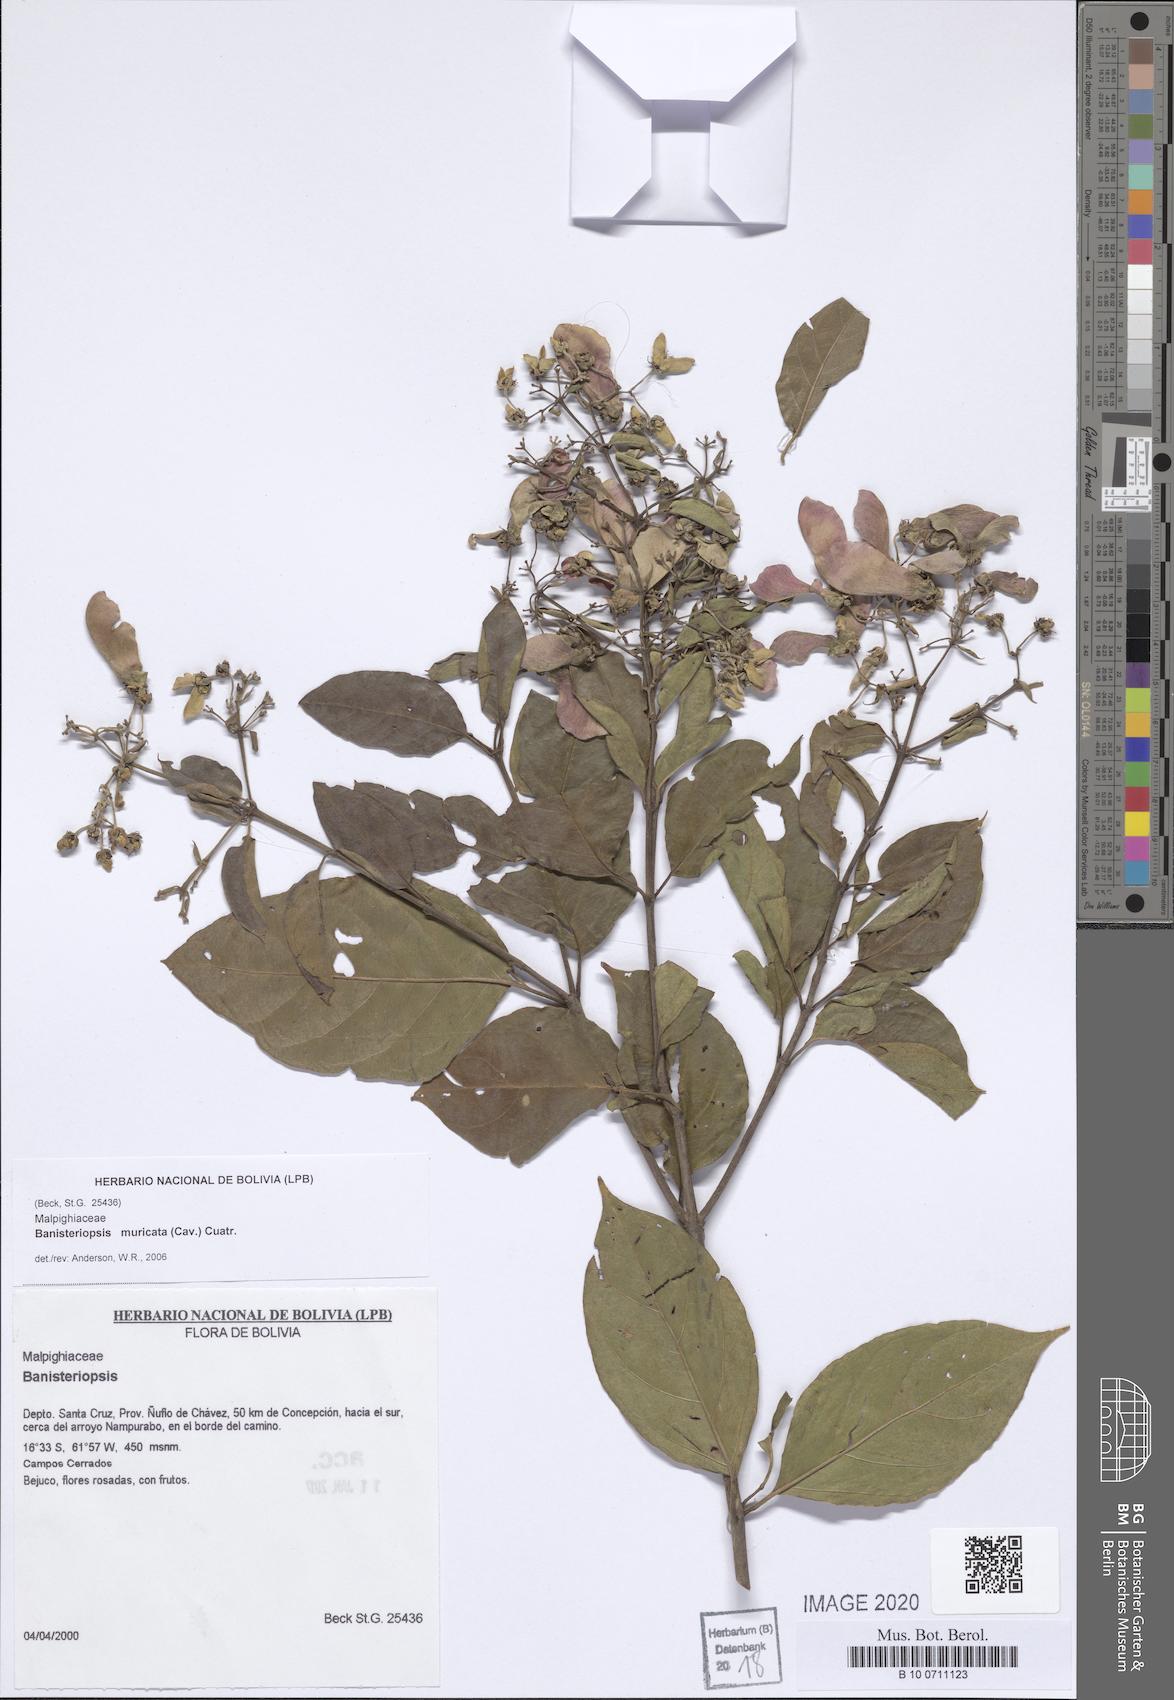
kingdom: Plantae
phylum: Tracheophyta
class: Magnoliopsida
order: Malpighiales
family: Malpighiaceae
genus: Banisteriopsis
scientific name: Banisteriopsis muricata
